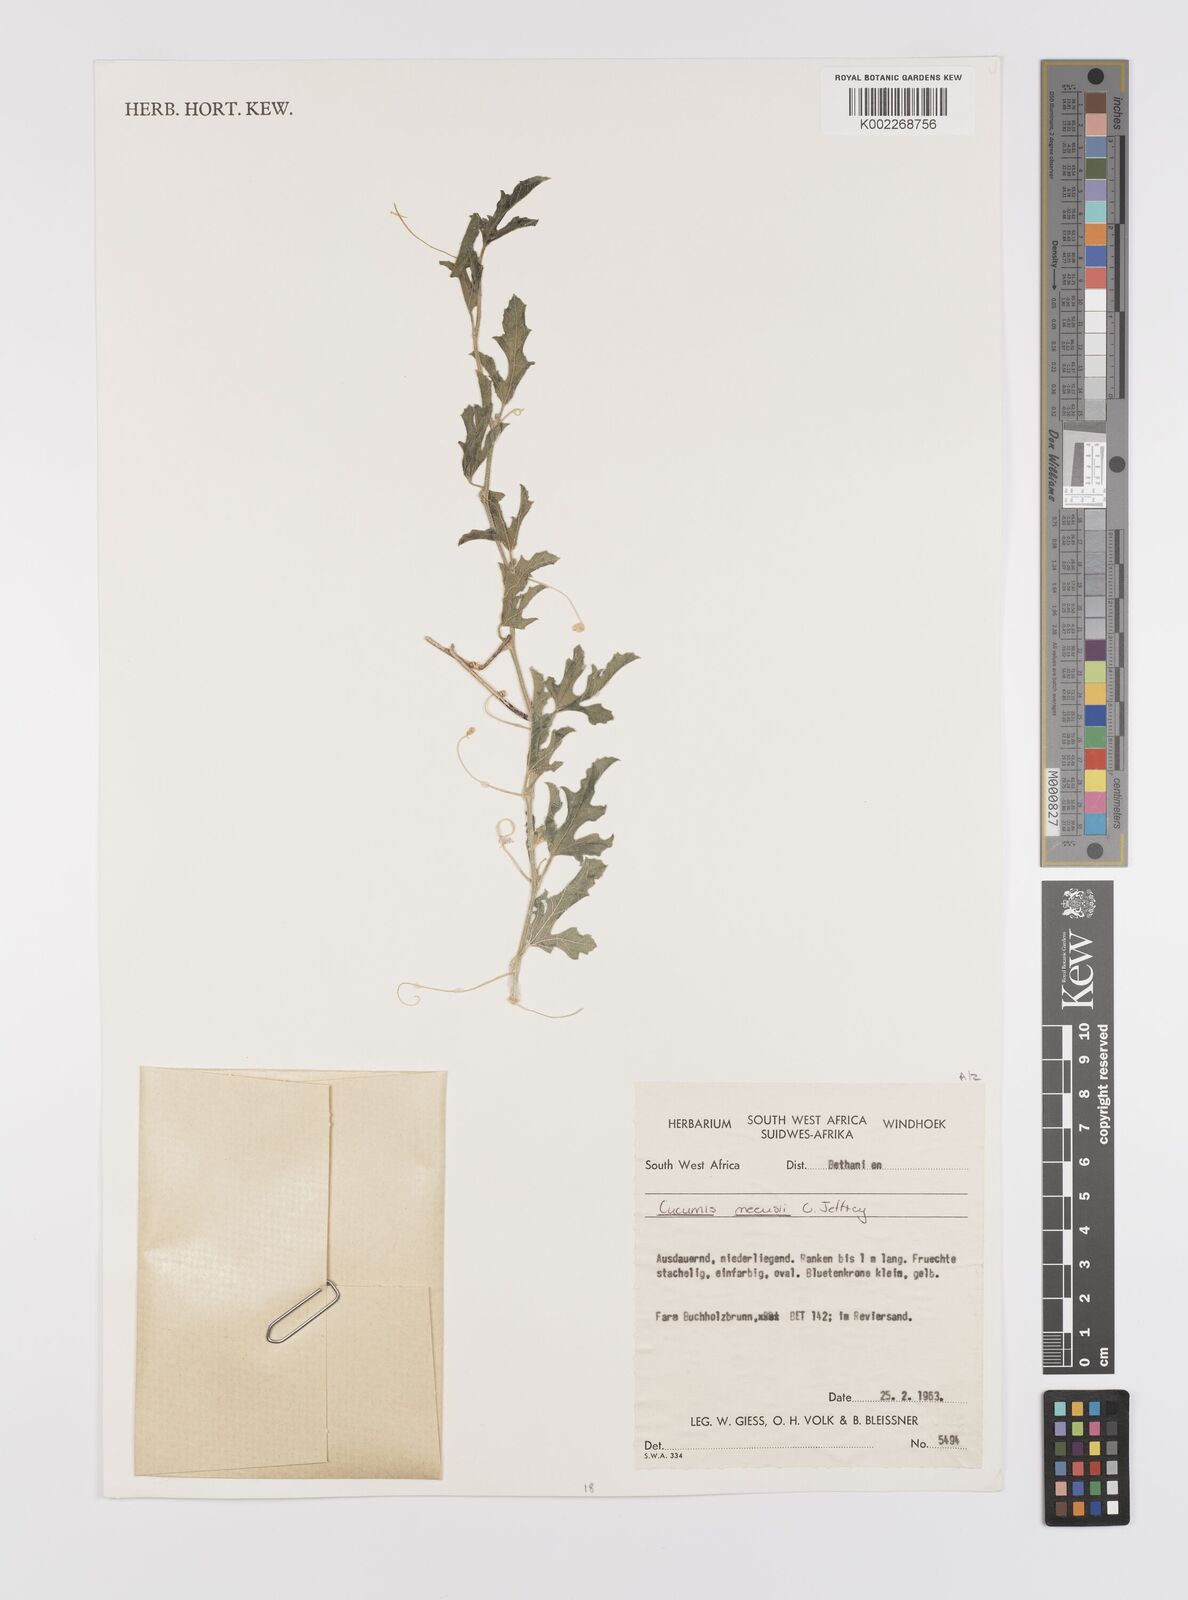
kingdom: Plantae
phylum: Tracheophyta
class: Magnoliopsida
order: Cucurbitales
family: Cucurbitaceae
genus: Cucumis
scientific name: Cucumis meeusei
